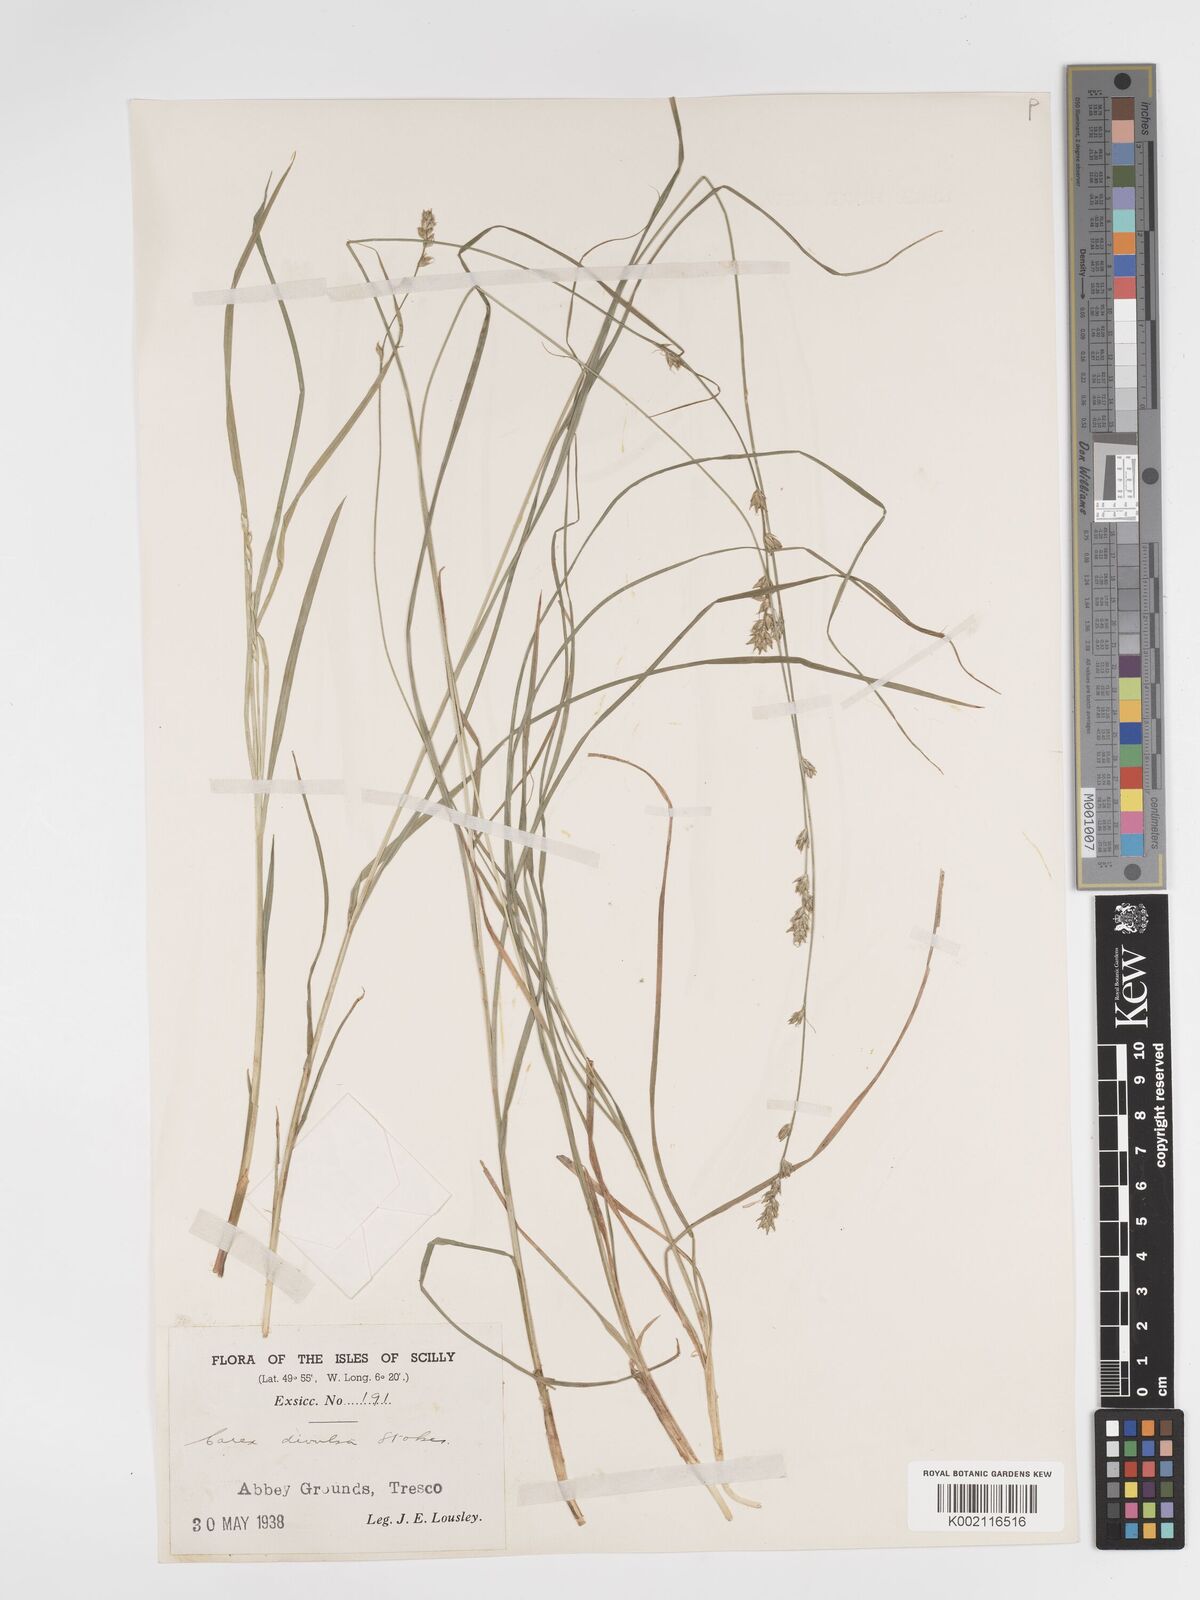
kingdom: Plantae
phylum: Tracheophyta
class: Liliopsida
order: Poales
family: Cyperaceae
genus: Carex
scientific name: Carex divulsa
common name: Grassland sedge
